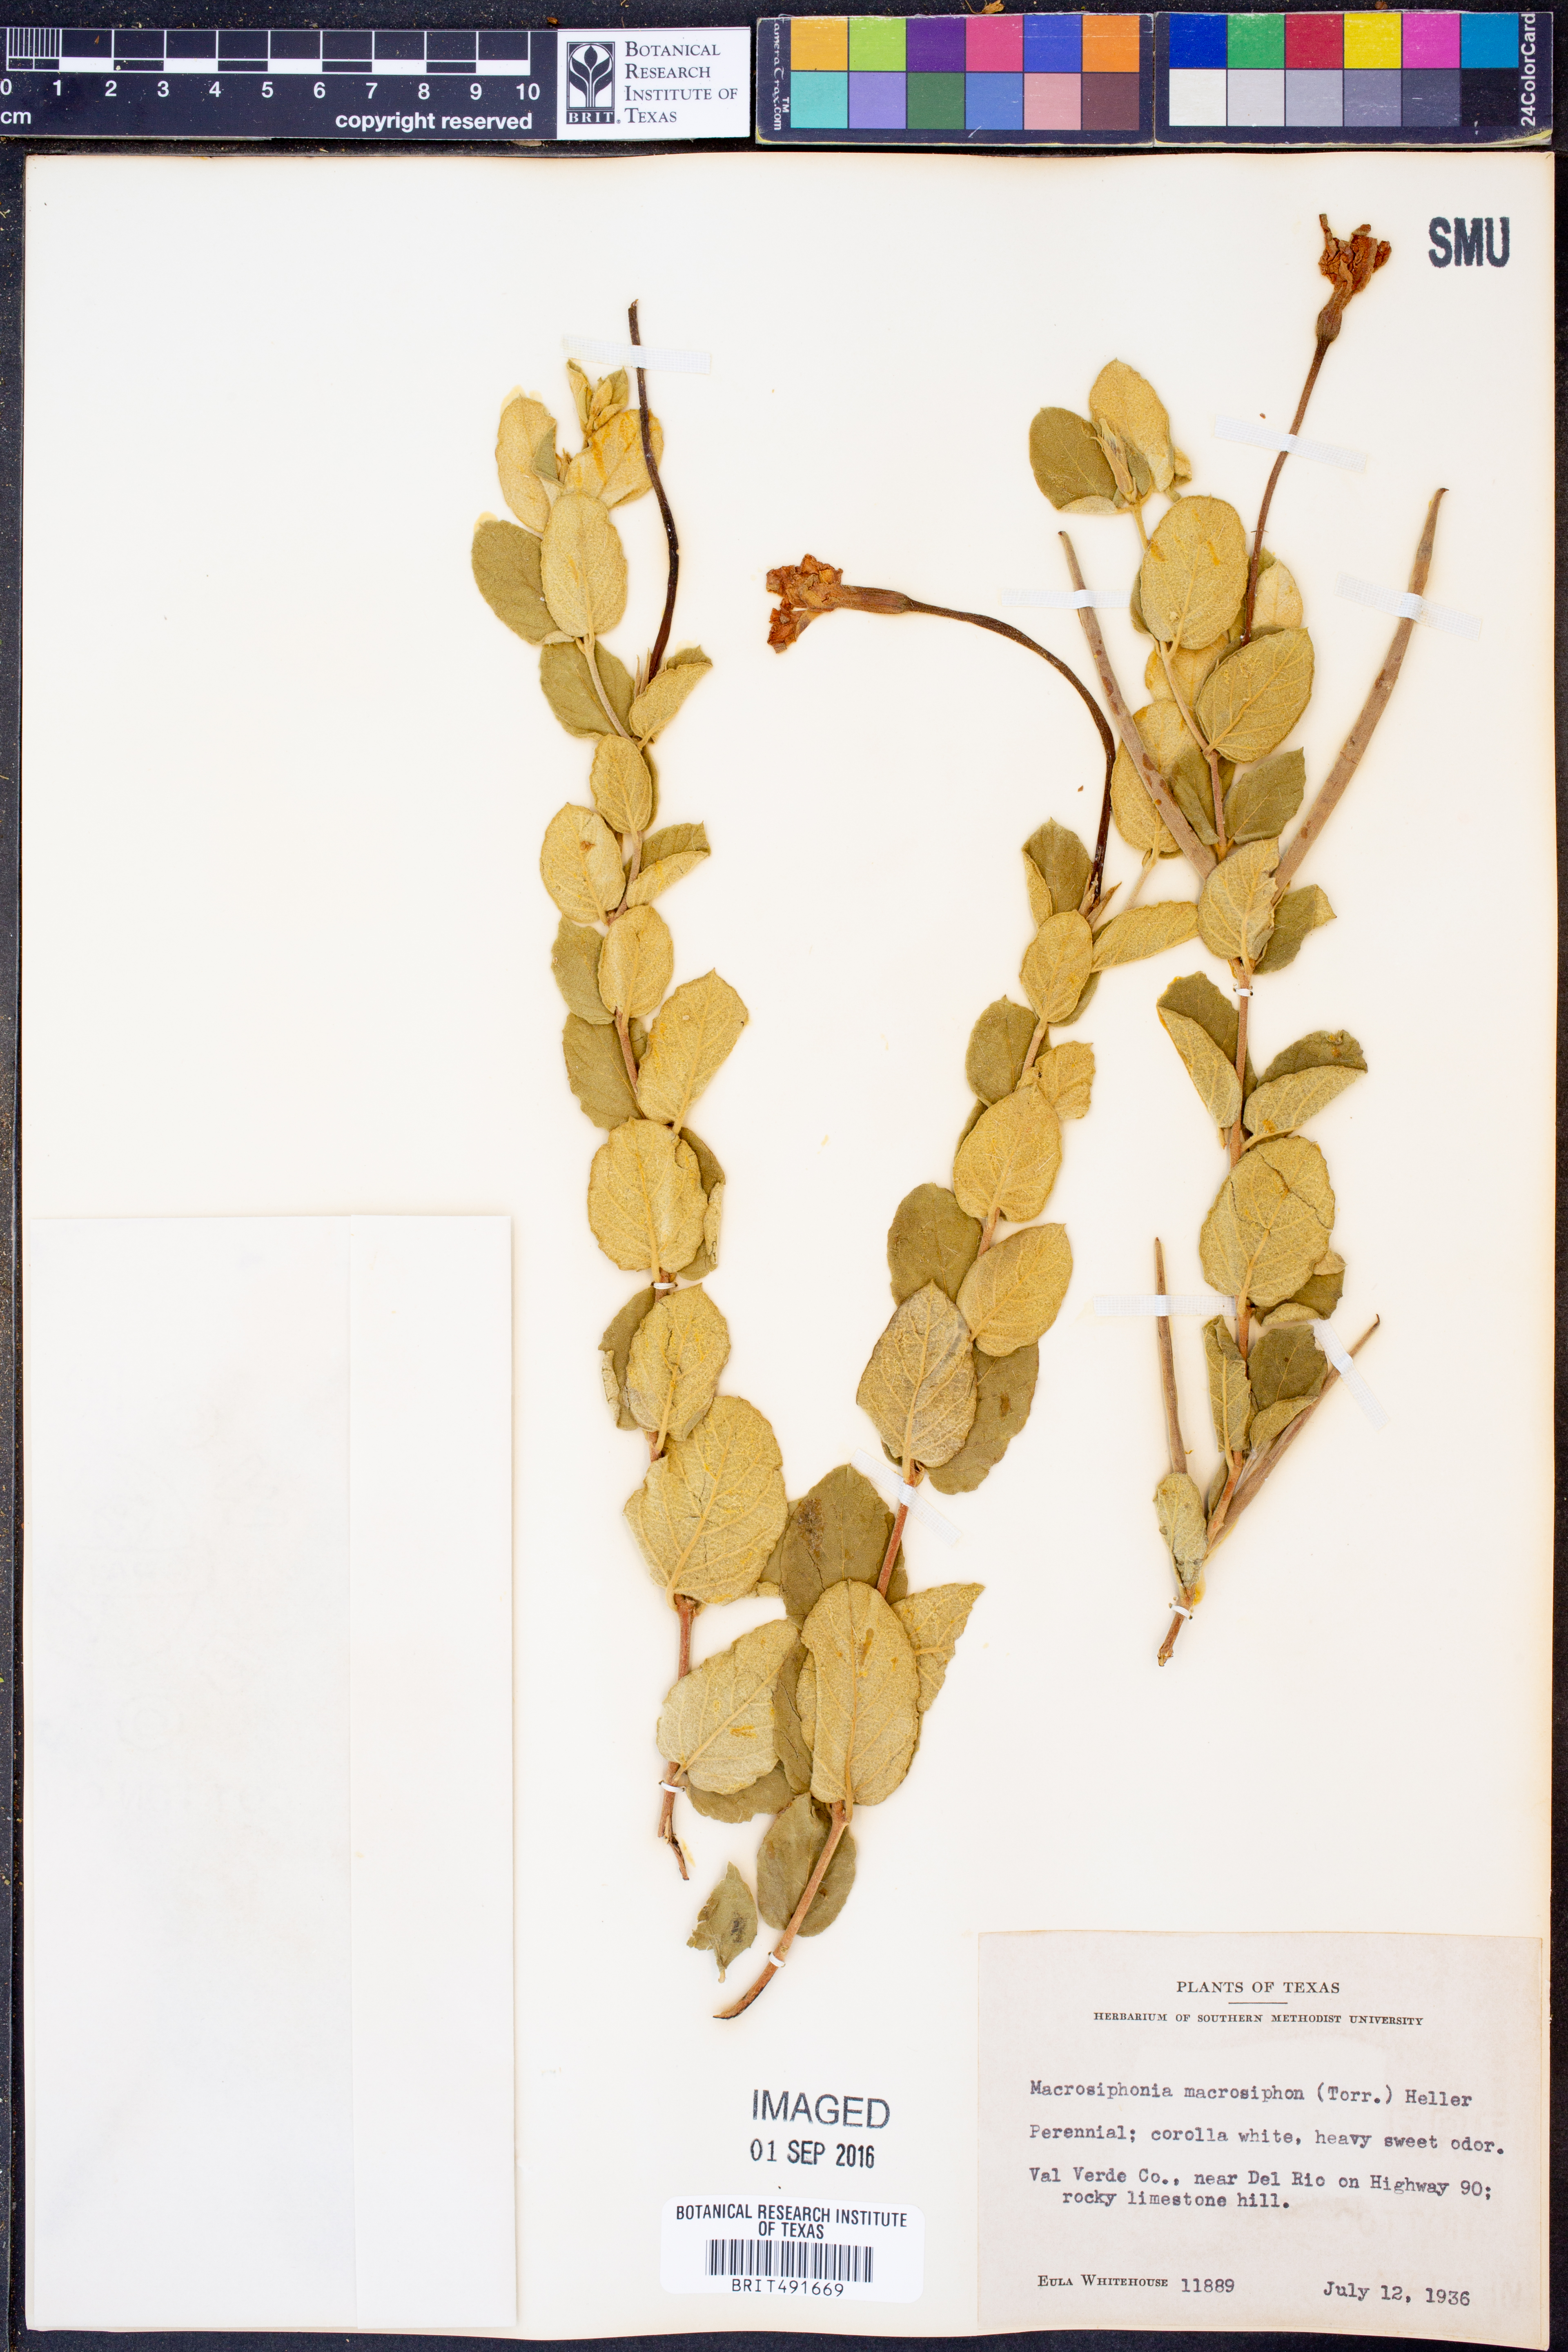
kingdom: Plantae
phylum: Tracheophyta
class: Magnoliopsida
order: Gentianales
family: Apocynaceae
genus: Mandevilla
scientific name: Mandevilla macrosiphon
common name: Plateau rocktrumpet
